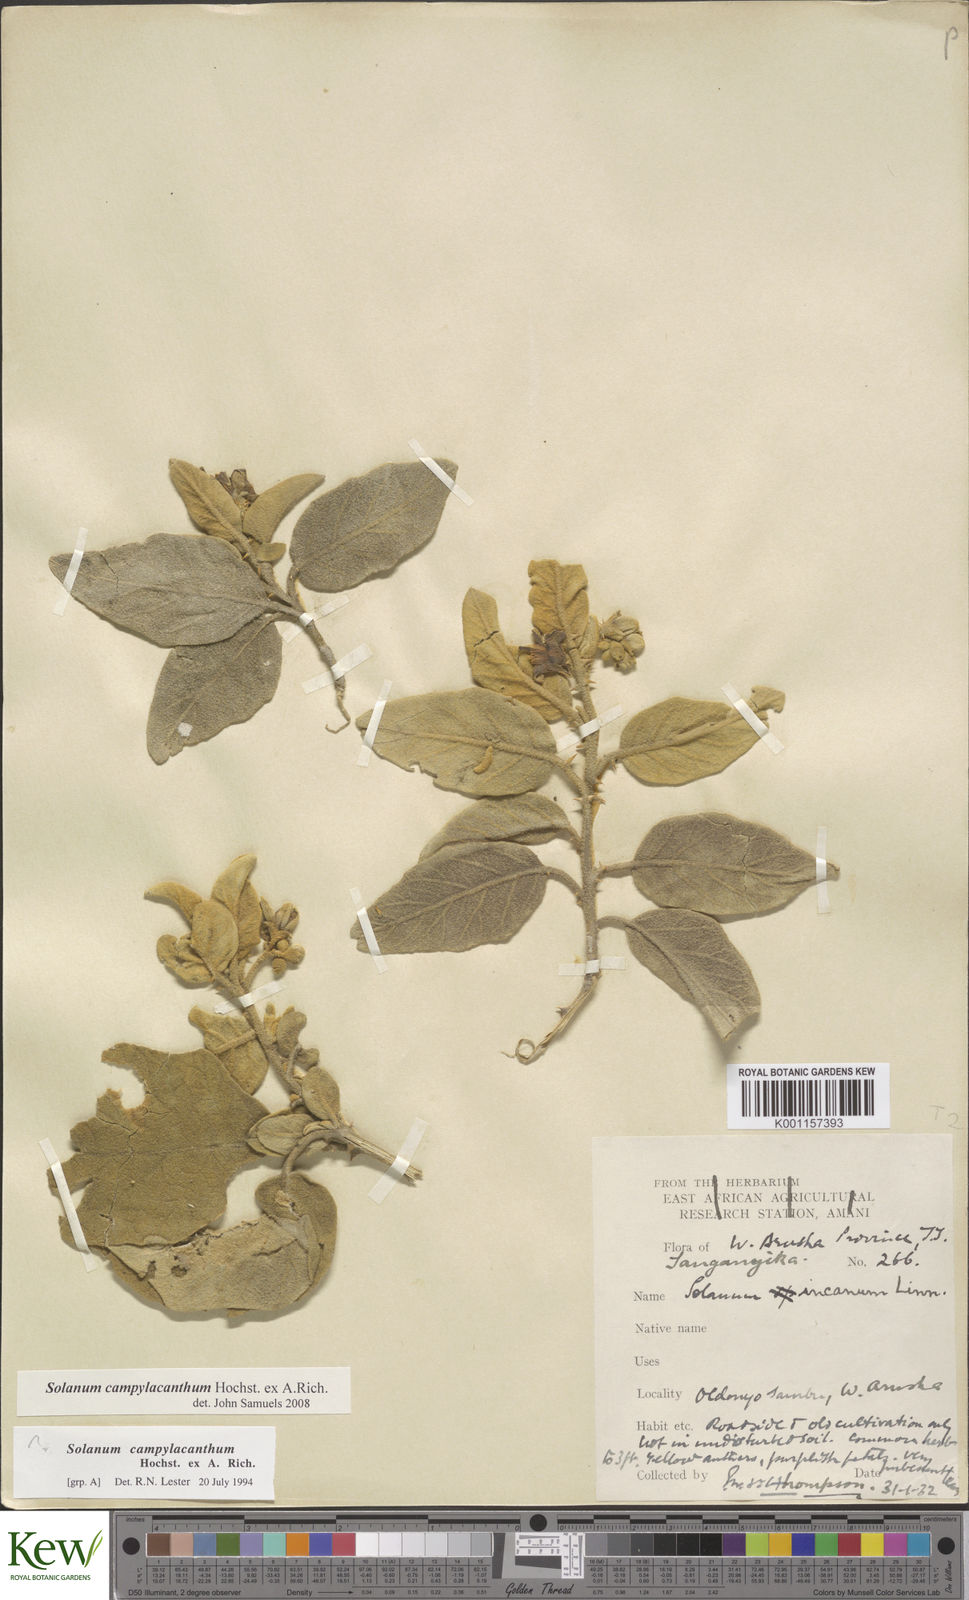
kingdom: Plantae
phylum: Tracheophyta
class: Magnoliopsida
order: Solanales
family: Solanaceae
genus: Solanum
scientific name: Solanum campylacanthum
